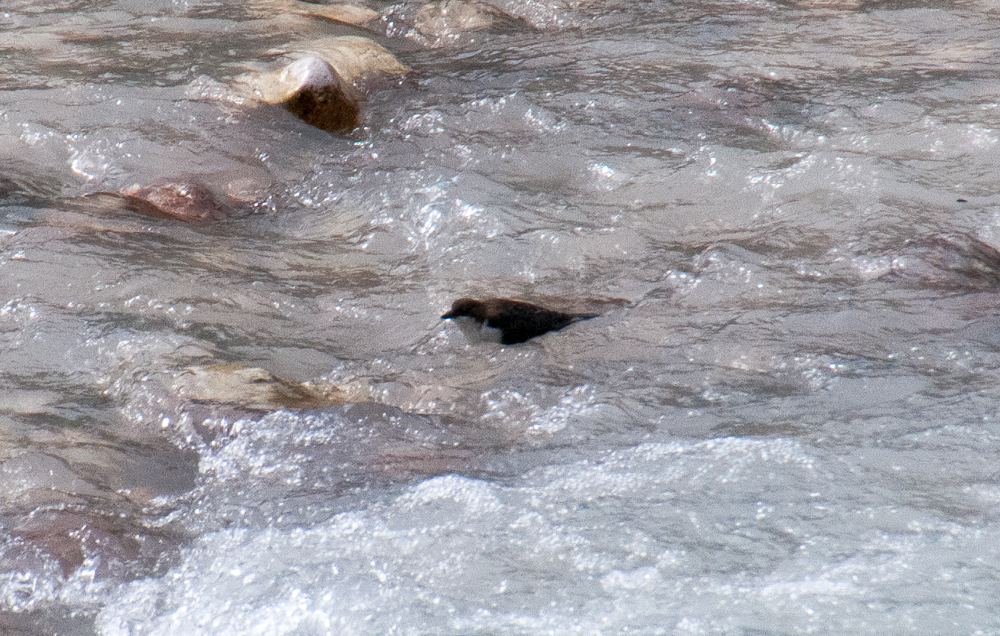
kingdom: Animalia
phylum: Chordata
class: Aves
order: Passeriformes
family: Cinclidae
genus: Cinclus
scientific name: Cinclus cinclus
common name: White-throated dipper
